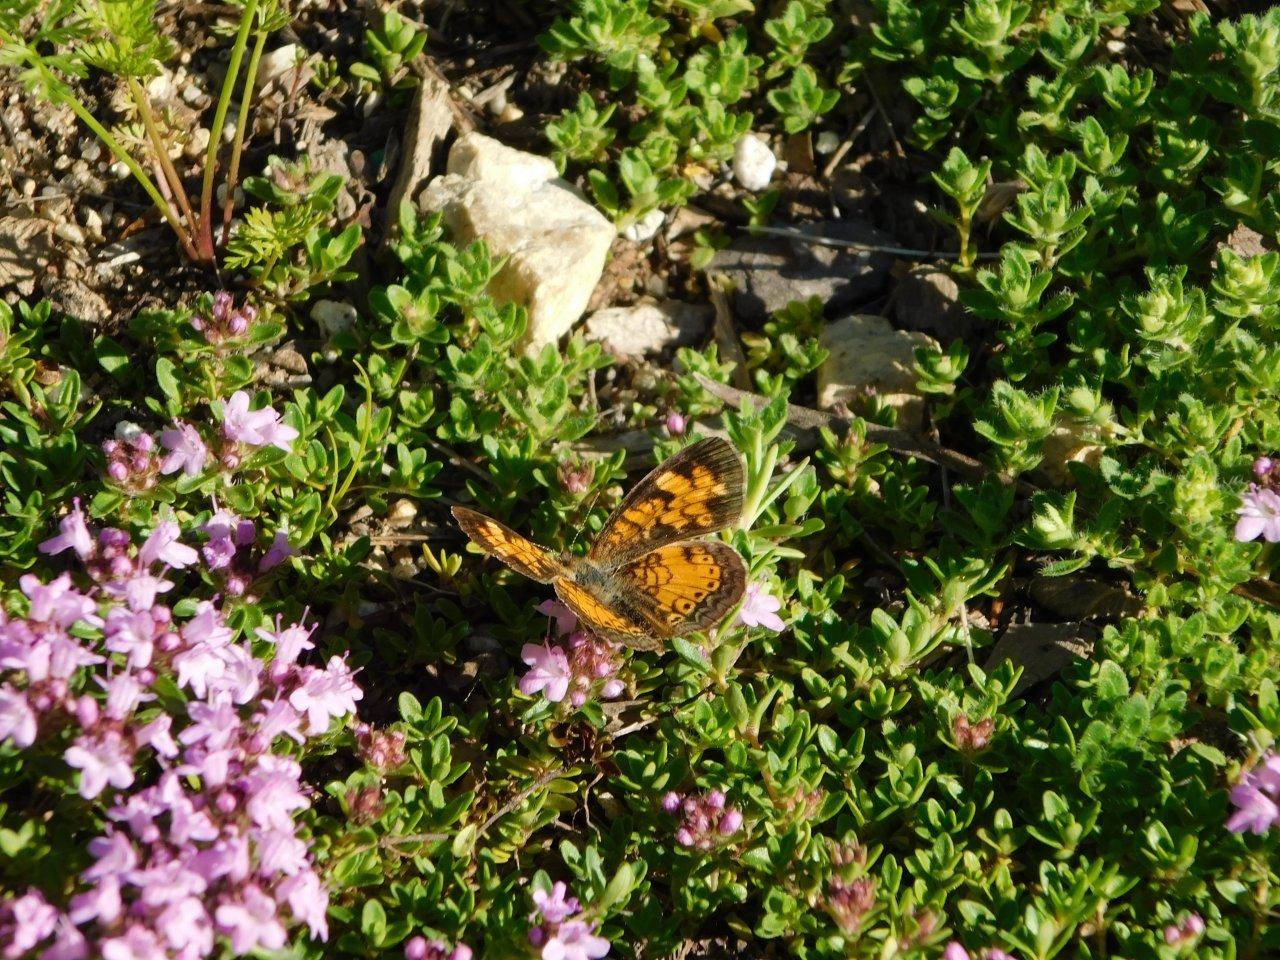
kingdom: Animalia
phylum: Arthropoda
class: Insecta
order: Lepidoptera
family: Nymphalidae
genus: Phyciodes
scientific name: Phyciodes tharos
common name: Pearl Crescent
